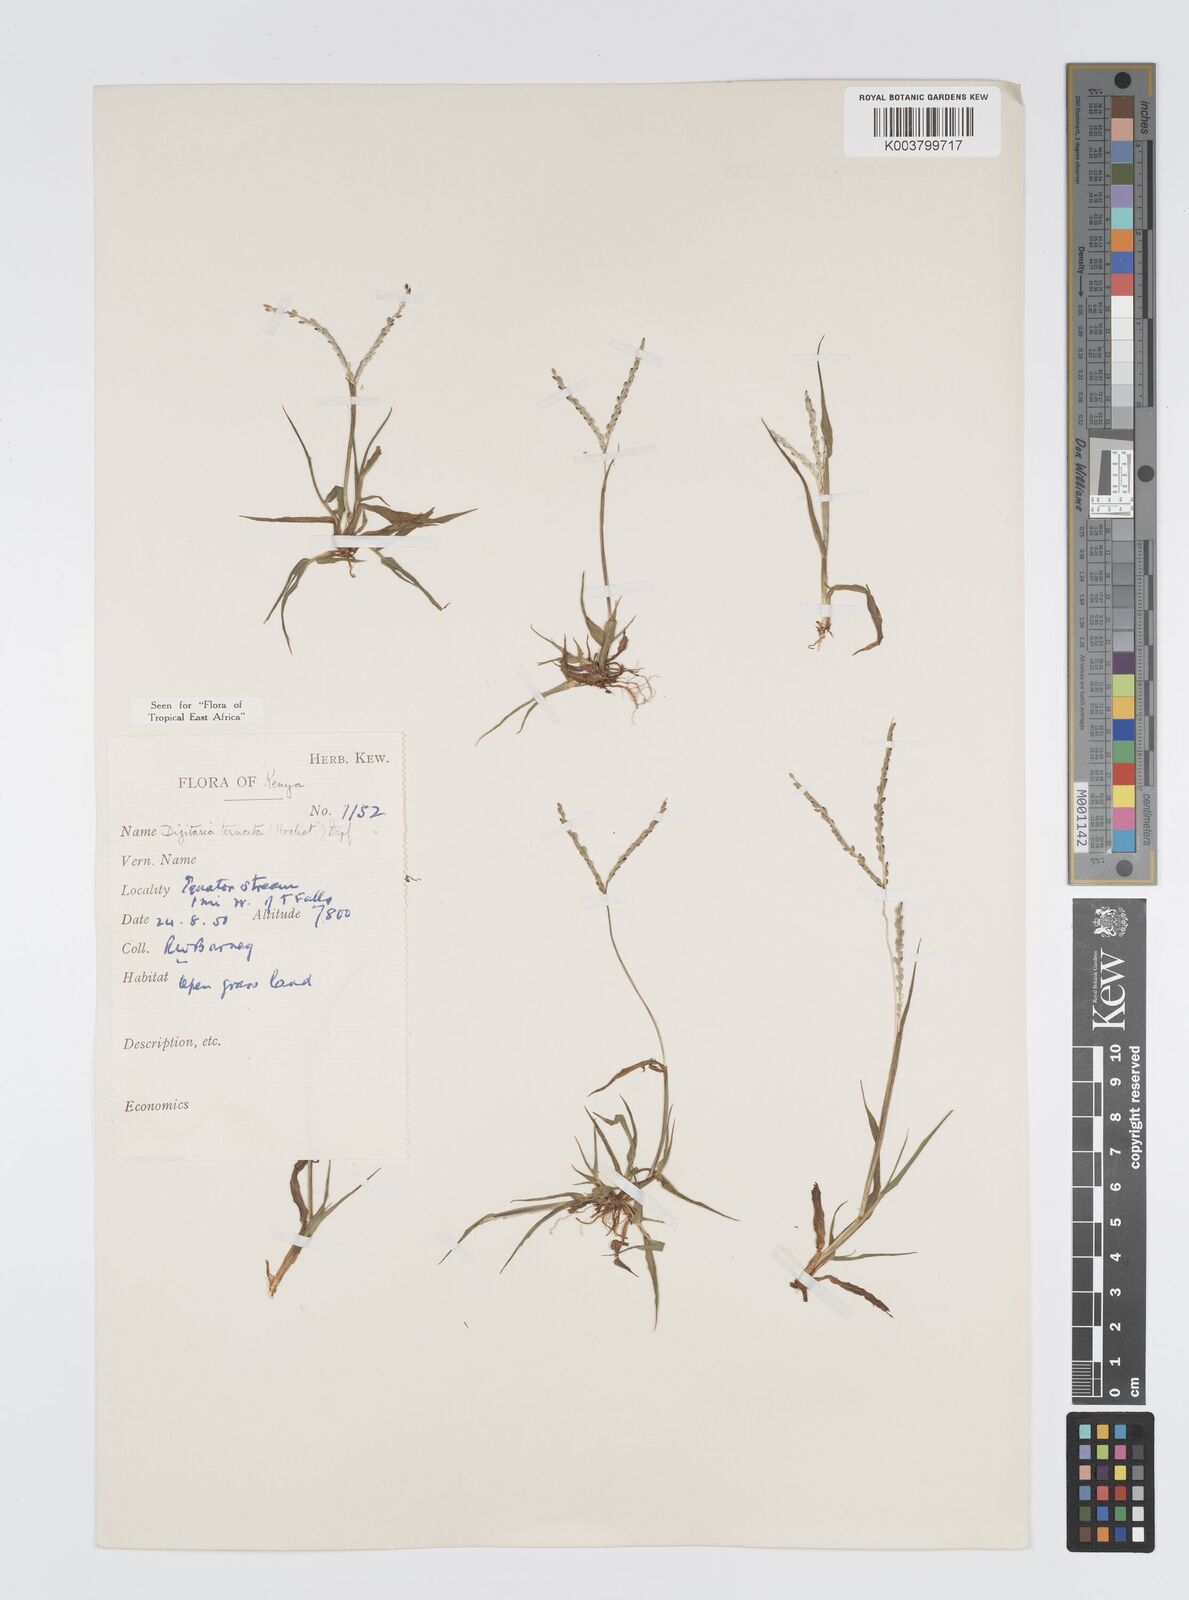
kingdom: Plantae
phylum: Tracheophyta
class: Liliopsida
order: Poales
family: Poaceae
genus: Digitaria
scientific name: Digitaria ternata
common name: Blackseed crabgrass
